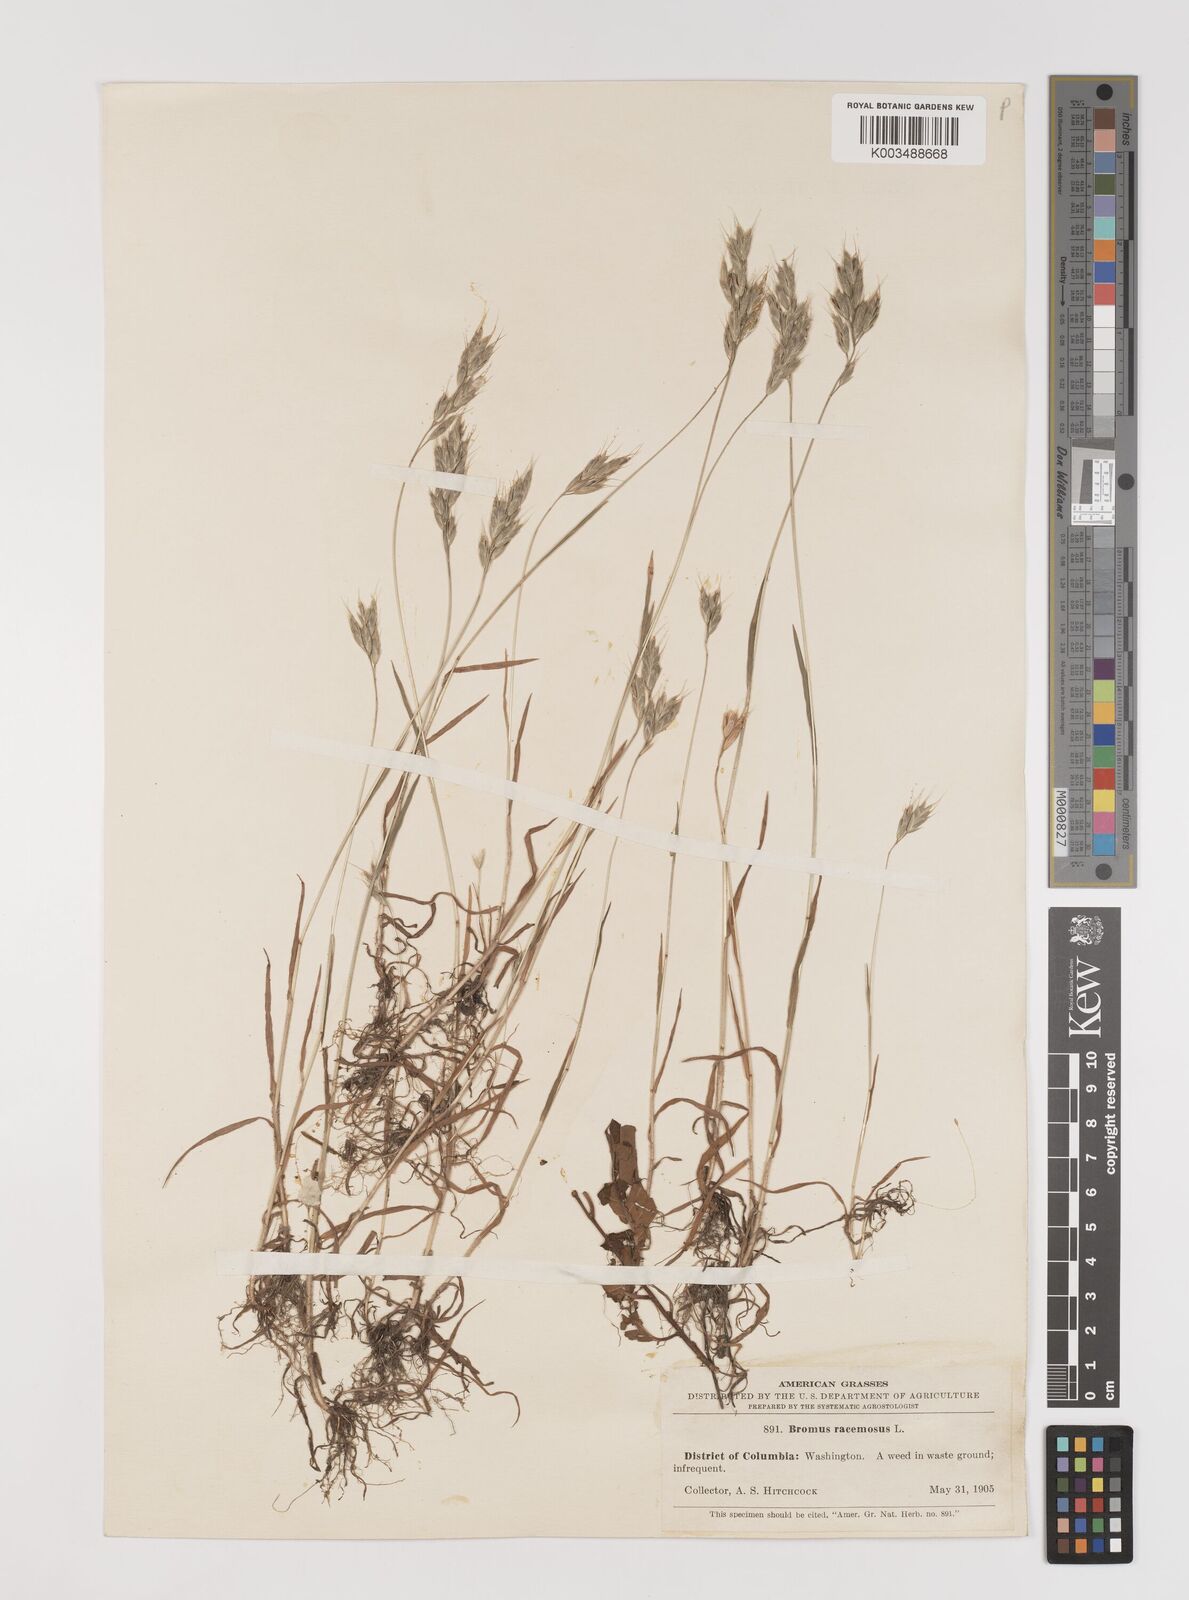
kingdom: Plantae
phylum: Tracheophyta
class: Liliopsida
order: Poales
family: Poaceae
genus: Bromus
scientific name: Bromus hordeaceus
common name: Soft brome
